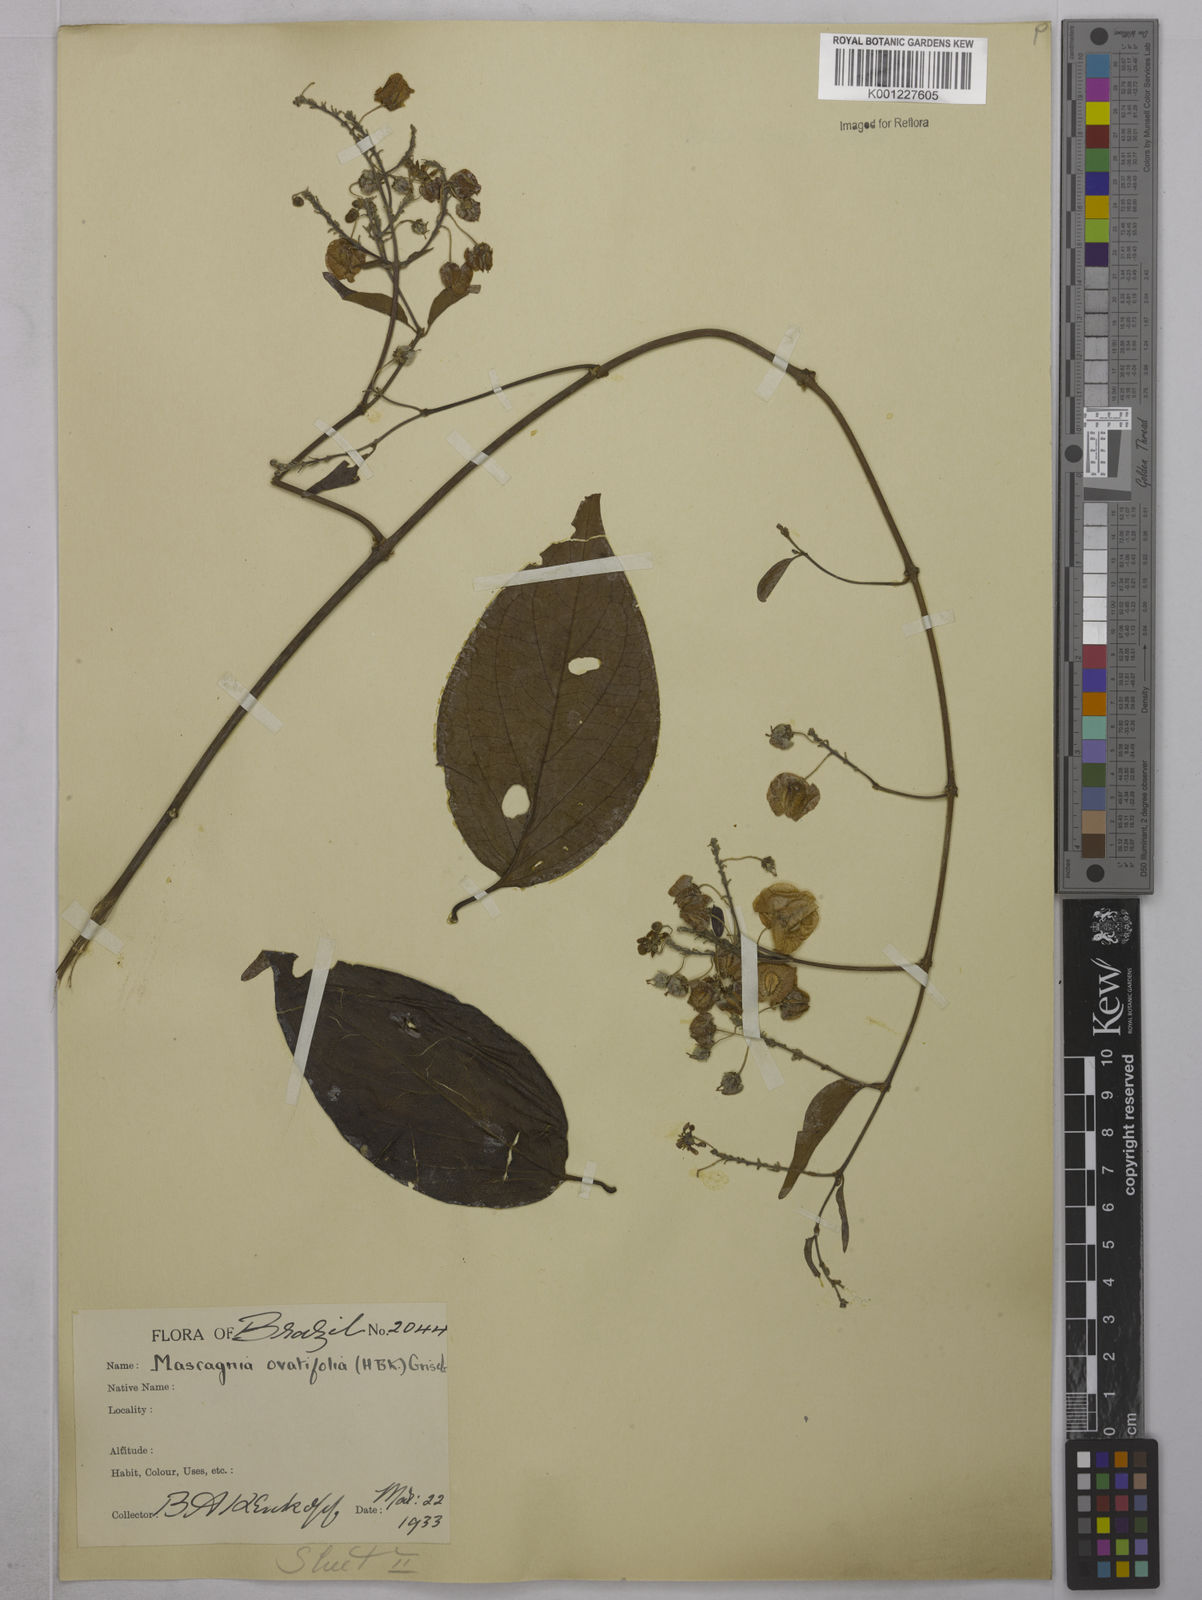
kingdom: Plantae
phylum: Tracheophyta
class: Magnoliopsida
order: Malpighiales
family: Malpighiaceae
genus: Mascagnia
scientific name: Mascagnia divaricata
